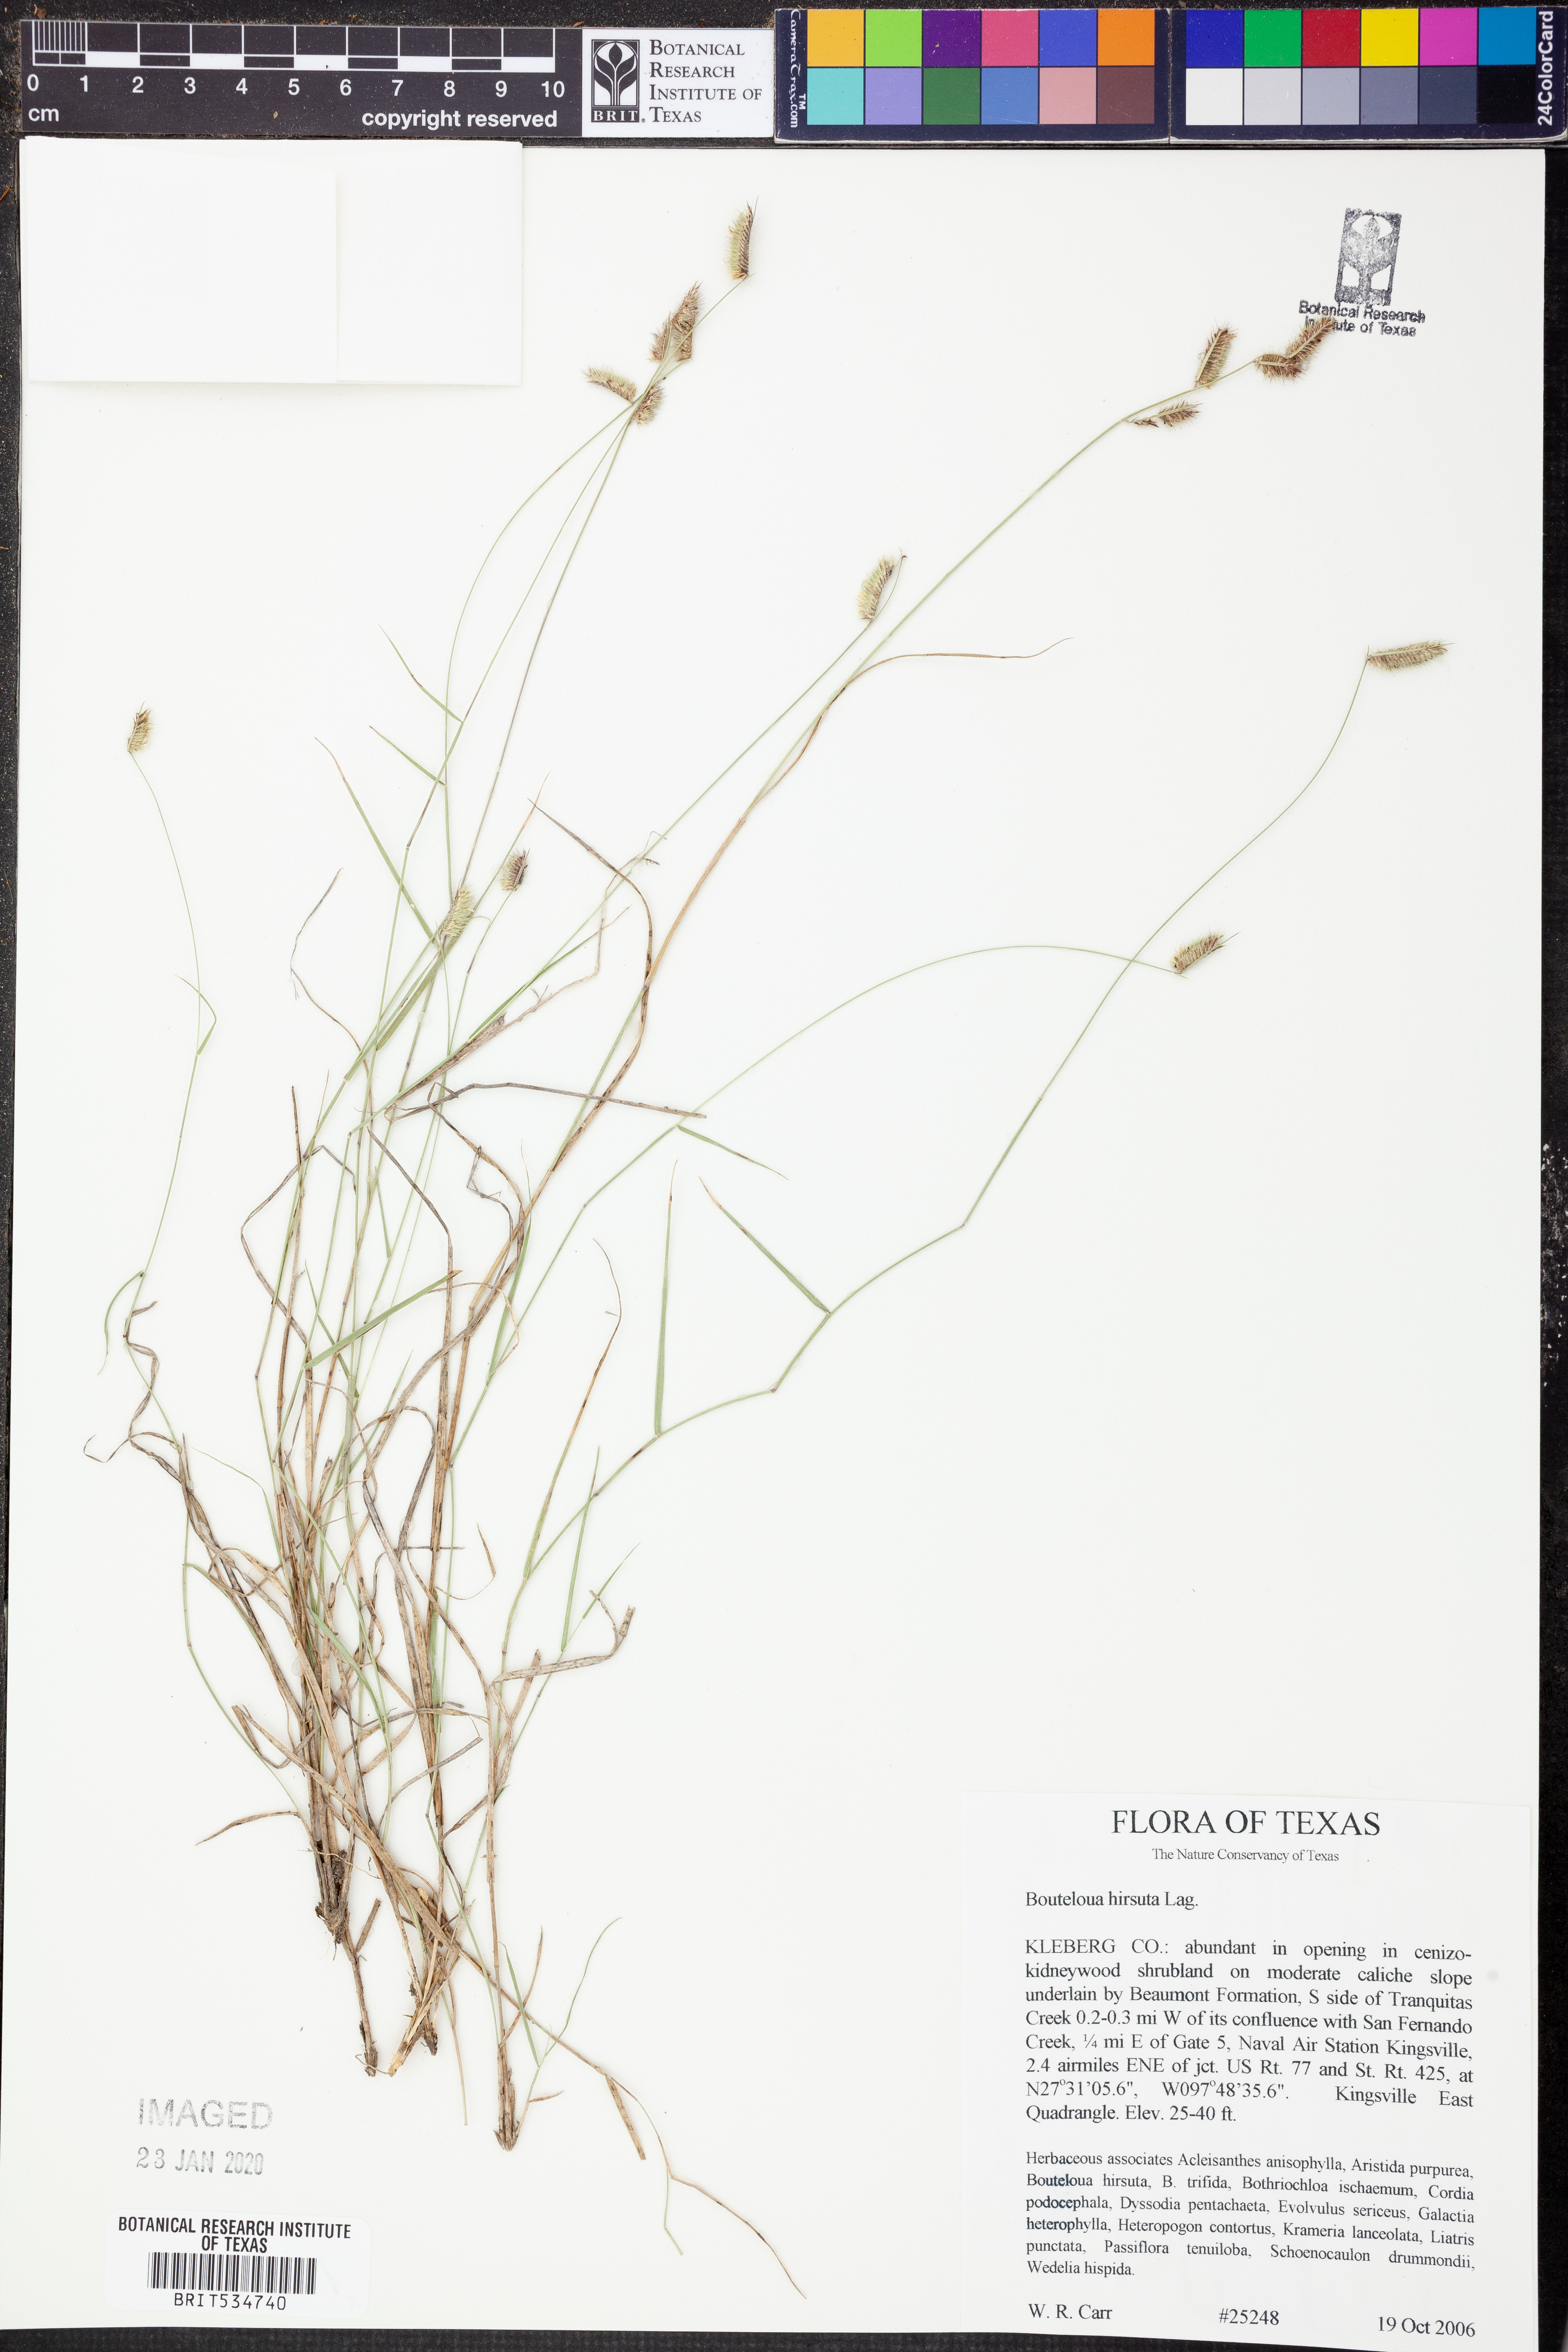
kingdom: Plantae
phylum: Tracheophyta
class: Liliopsida
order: Poales
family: Poaceae
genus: Bouteloua
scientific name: Bouteloua hirsuta
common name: Hairy grama
